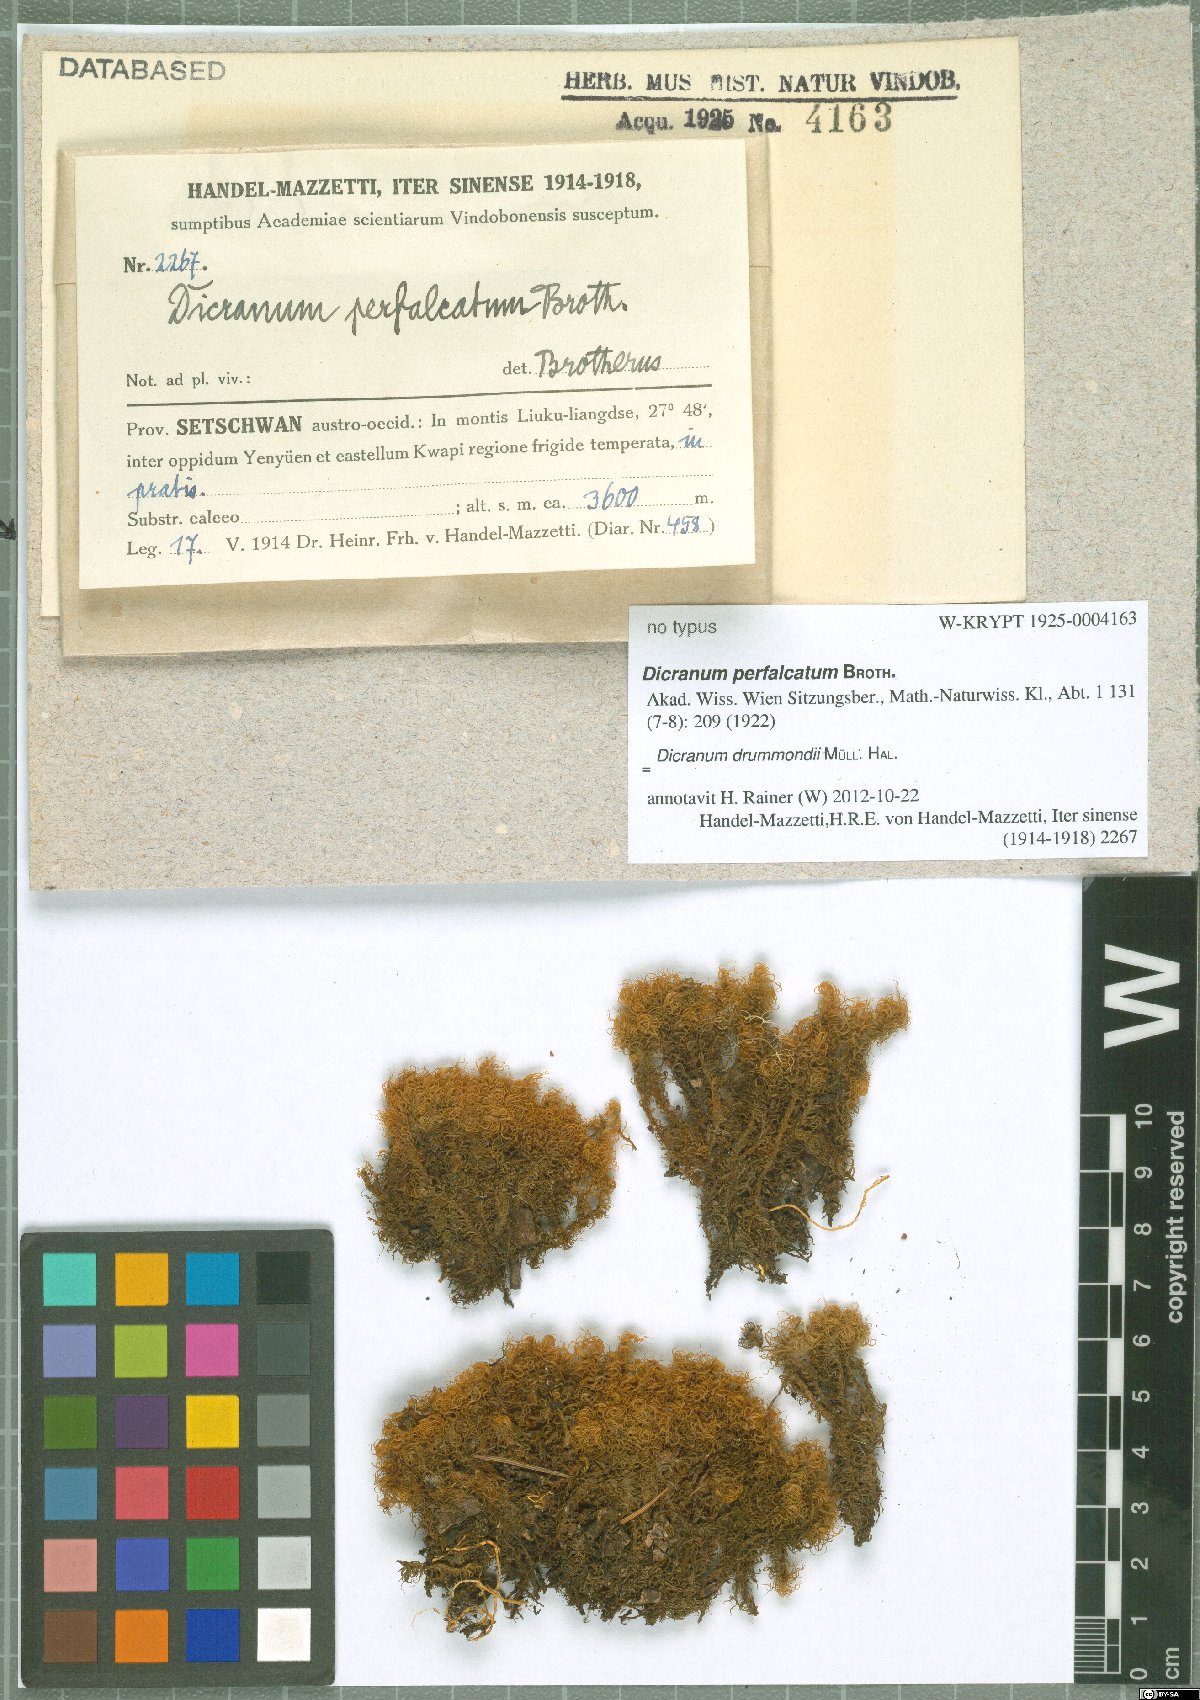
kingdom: Plantae
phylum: Bryophyta
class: Bryopsida
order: Dicranales
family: Dicranaceae
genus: Dicranum
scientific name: Dicranum drummondii
